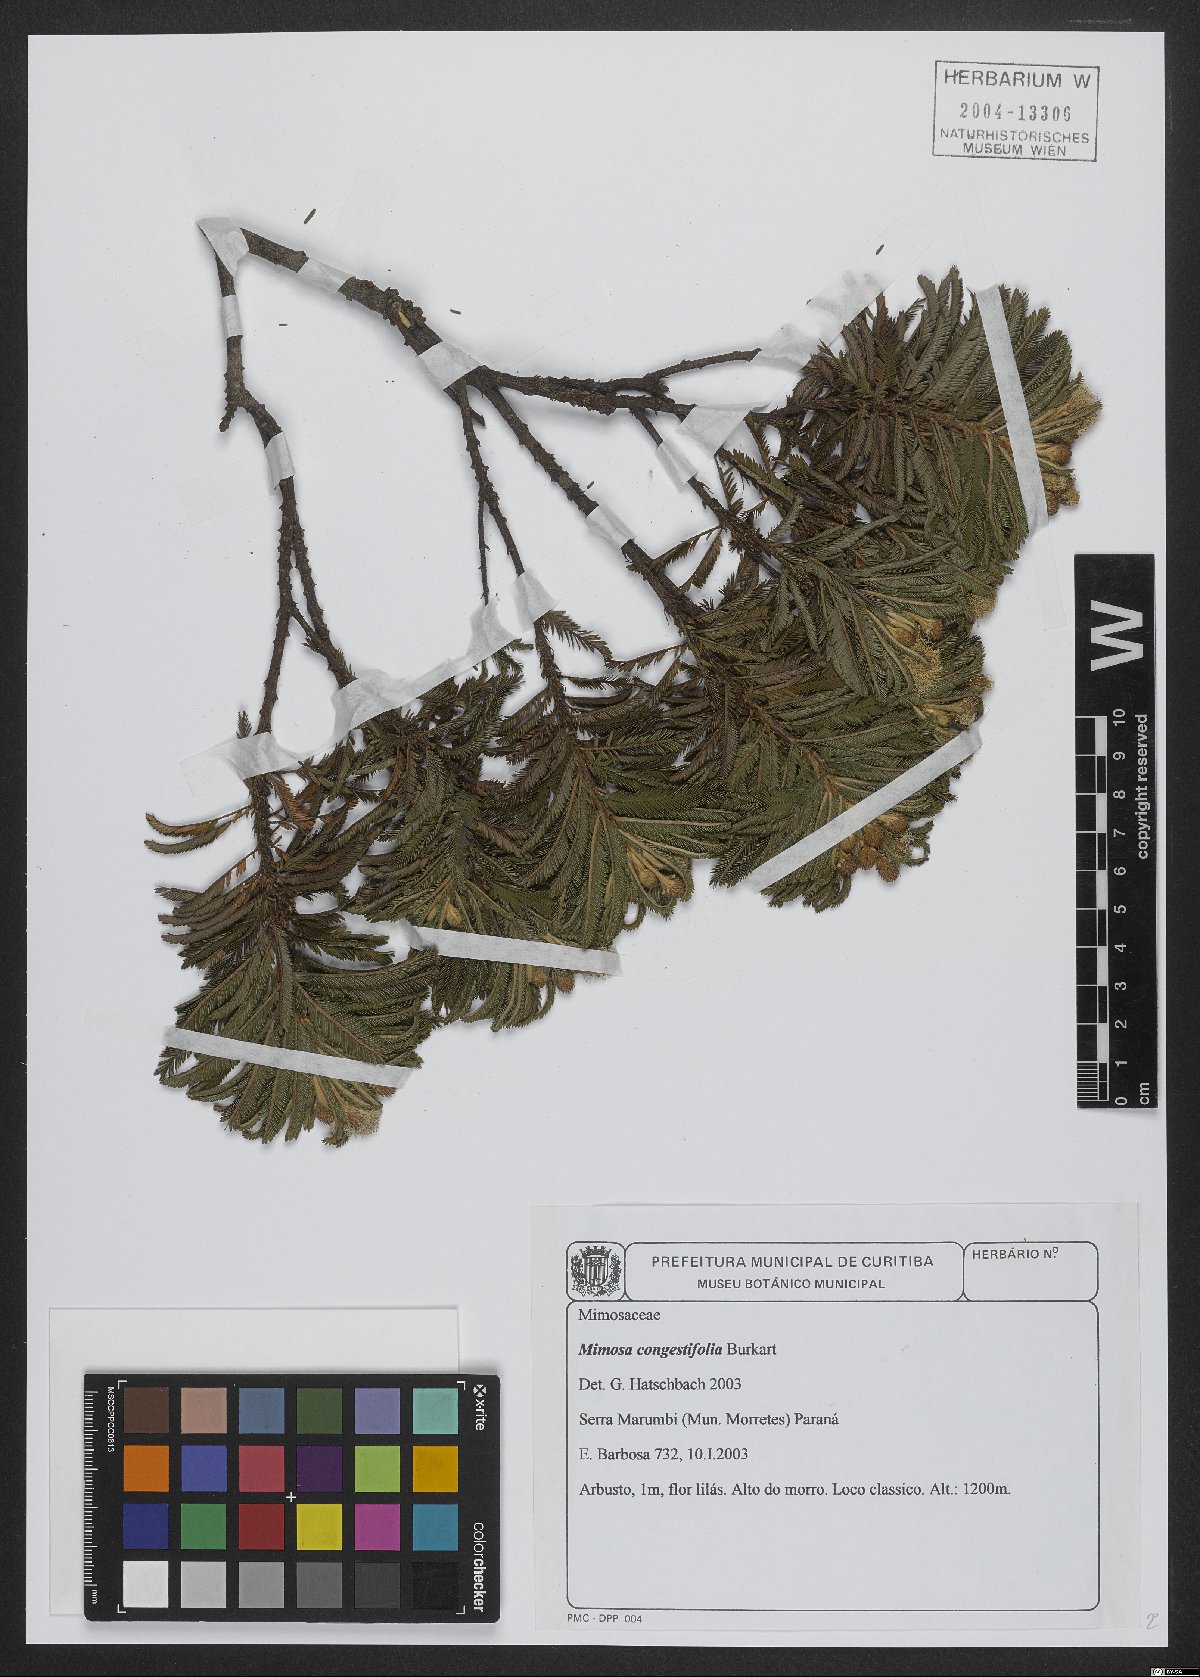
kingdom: Plantae
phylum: Tracheophyta
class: Magnoliopsida
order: Fabales
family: Fabaceae
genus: Mimosa
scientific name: Mimosa congestifolia
